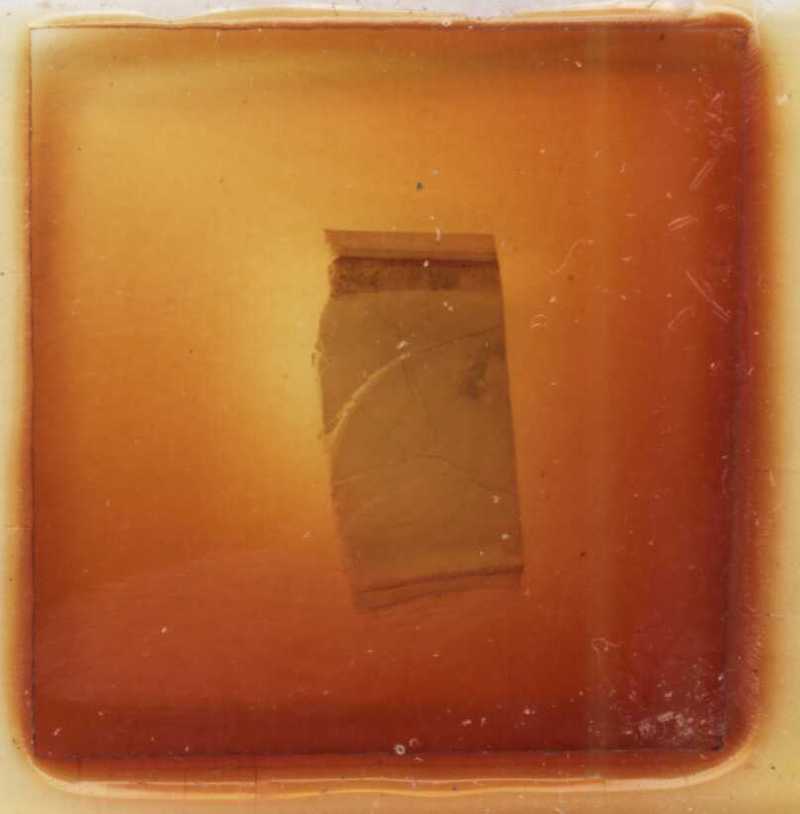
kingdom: Animalia
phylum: Arthropoda
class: Diplopoda
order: Sphaerotheriida
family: Zephroniidae
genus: Sphaeropoeus
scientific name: Sphaeropoeus malaccanus
